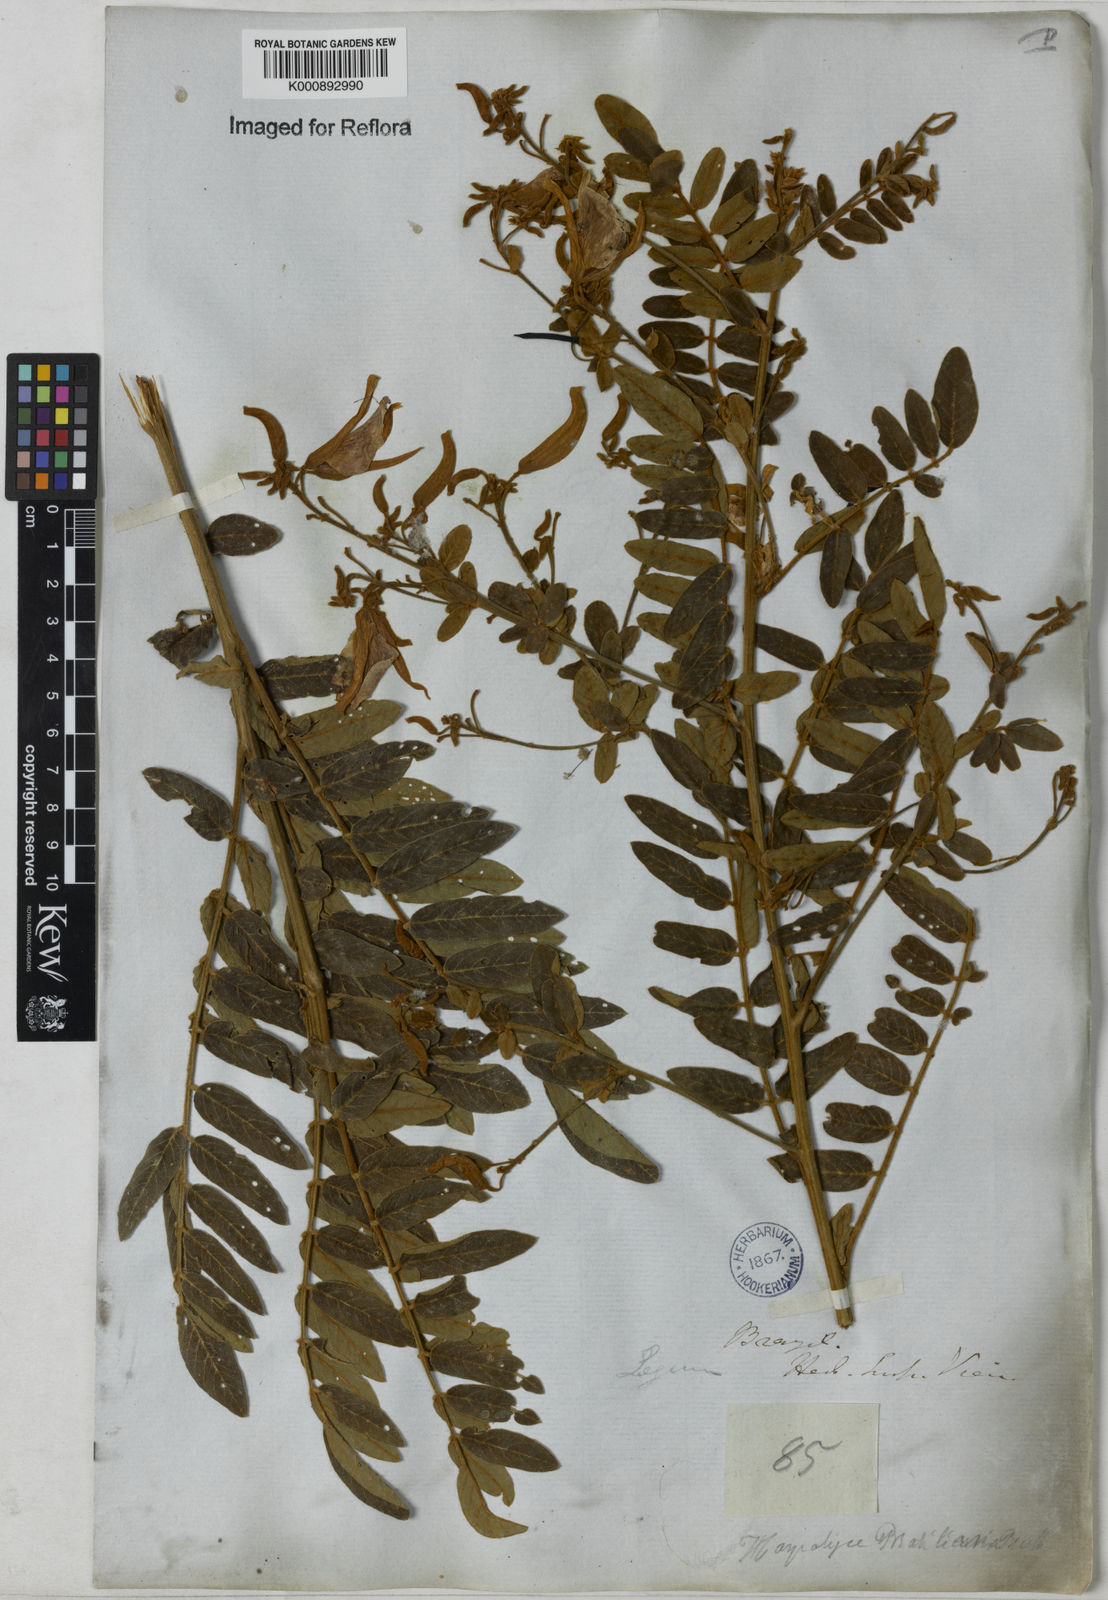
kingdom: Plantae
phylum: Tracheophyta
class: Magnoliopsida
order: Fabales
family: Fabaceae
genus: Harpalyce
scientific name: Harpalyce brasiliana
